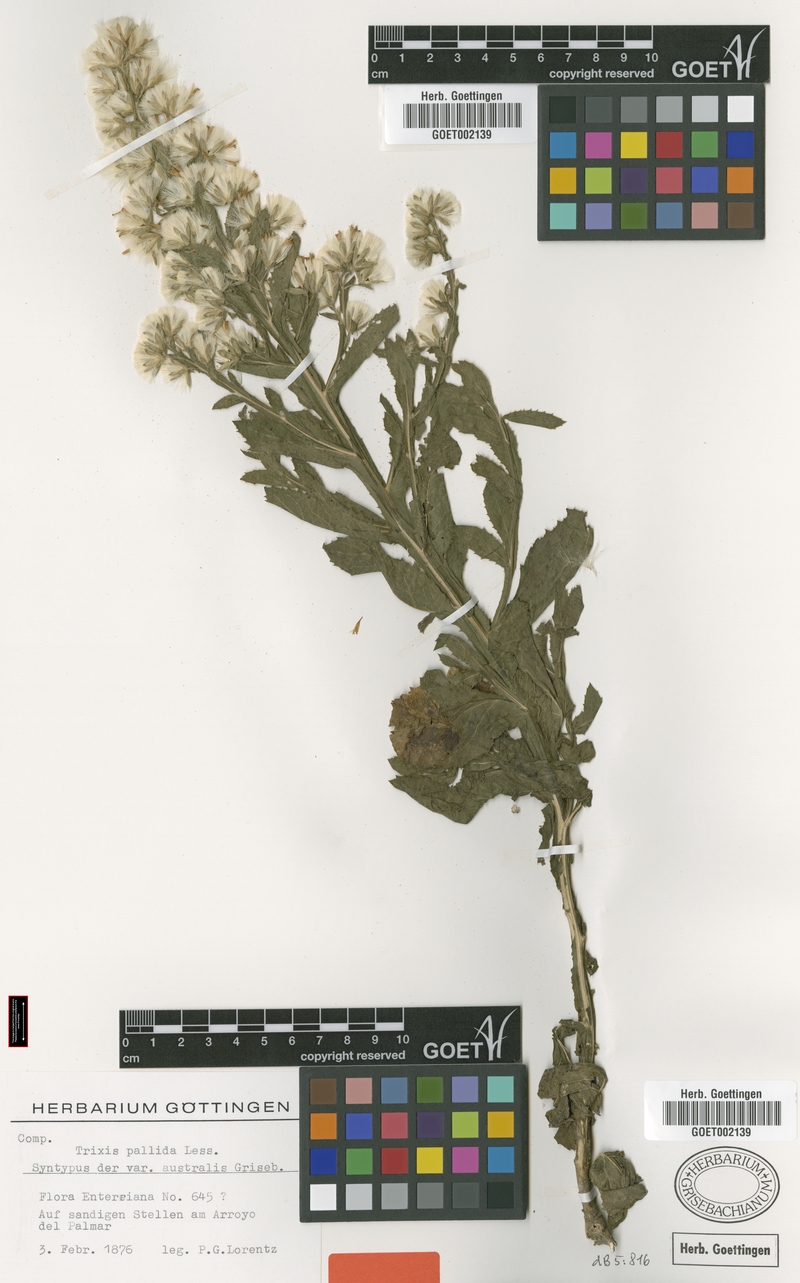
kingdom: Plantae
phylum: Tracheophyta
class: Magnoliopsida
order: Asterales
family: Asteraceae
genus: Trixis
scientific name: Trixis pallida
